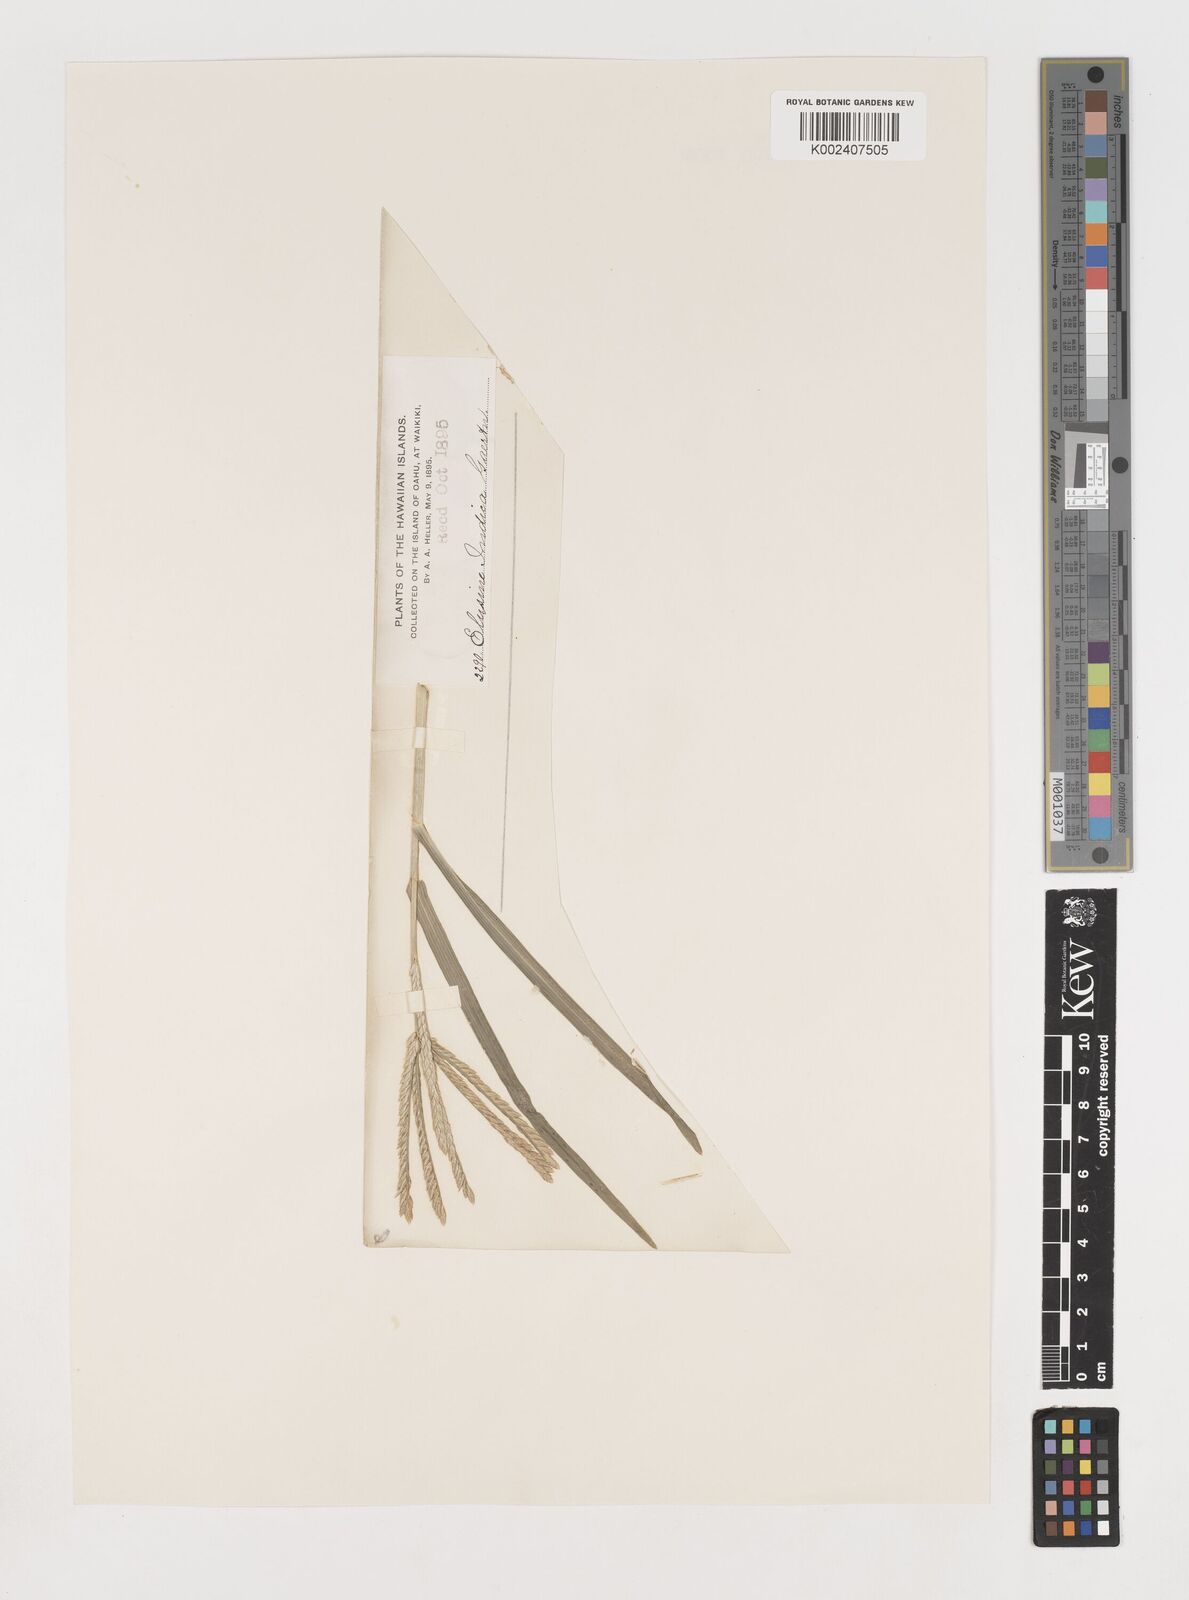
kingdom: Plantae
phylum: Tracheophyta
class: Liliopsida
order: Poales
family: Poaceae
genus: Eleusine
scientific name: Eleusine indica
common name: Yard-grass
